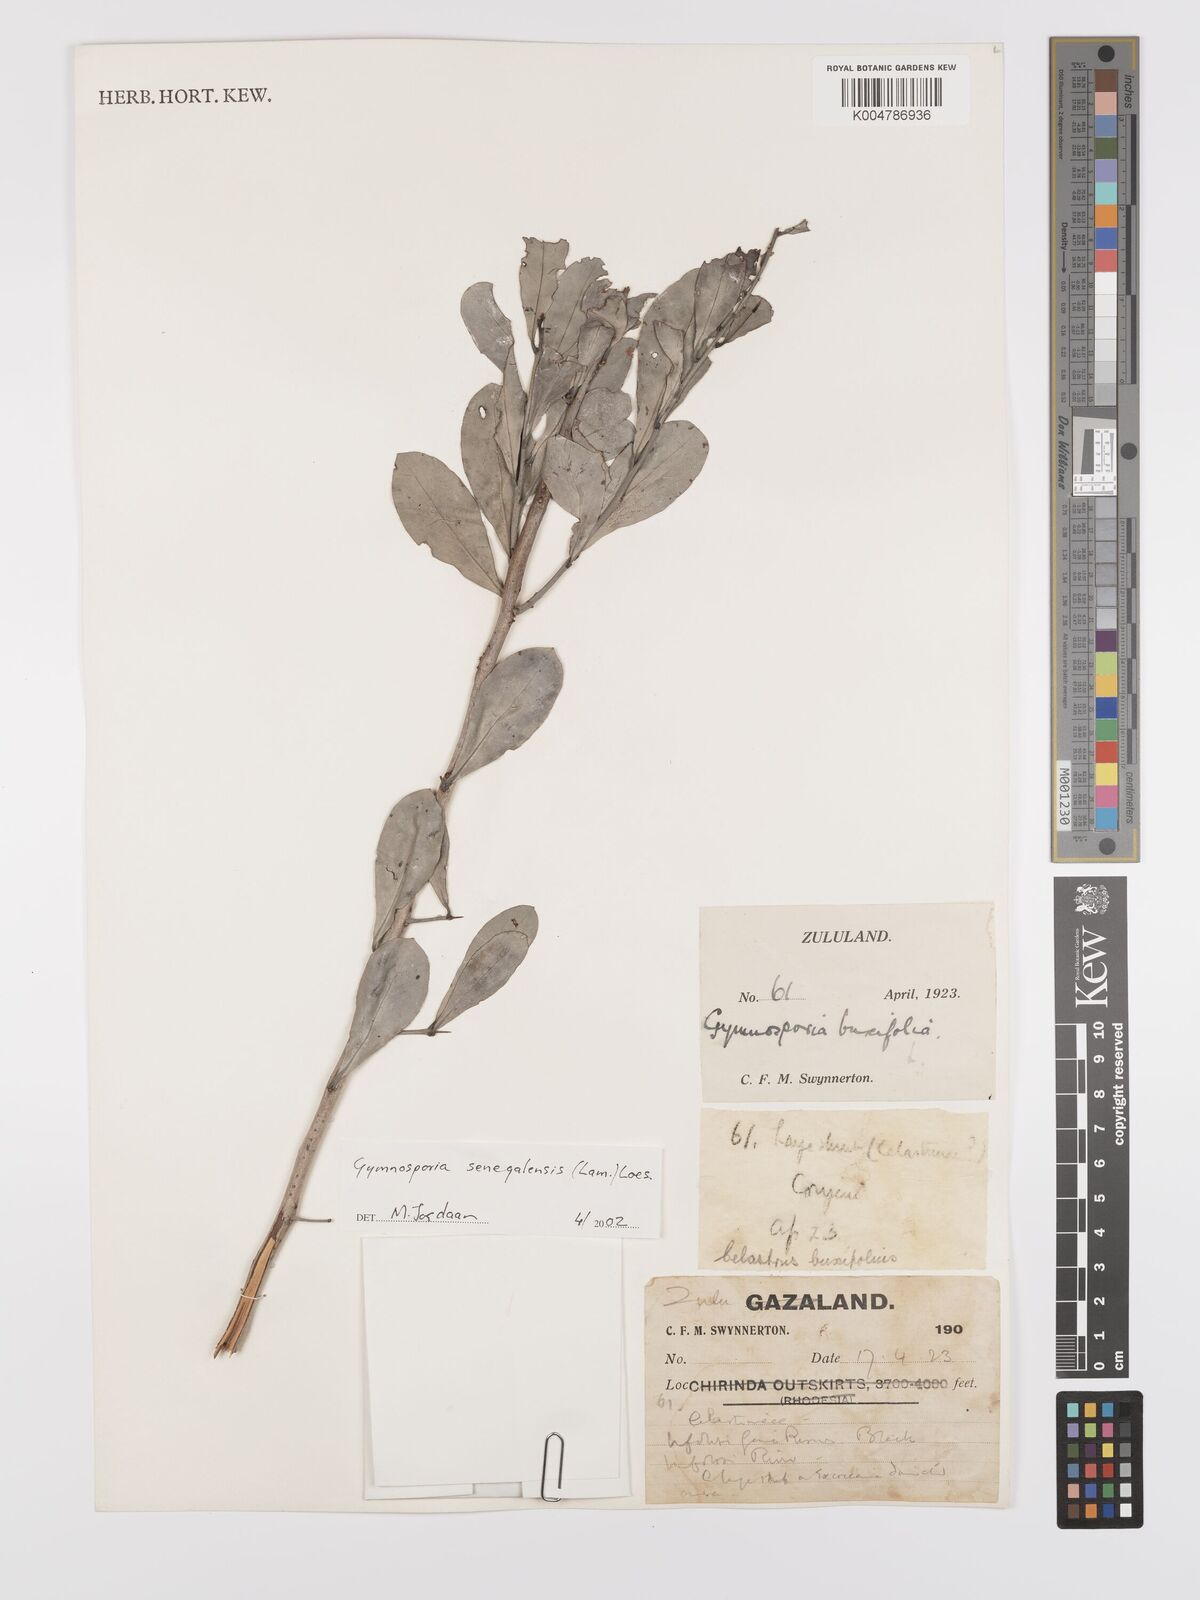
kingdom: Plantae
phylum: Tracheophyta
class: Magnoliopsida
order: Celastrales
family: Celastraceae
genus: Gymnosporia
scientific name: Gymnosporia senegalensis
